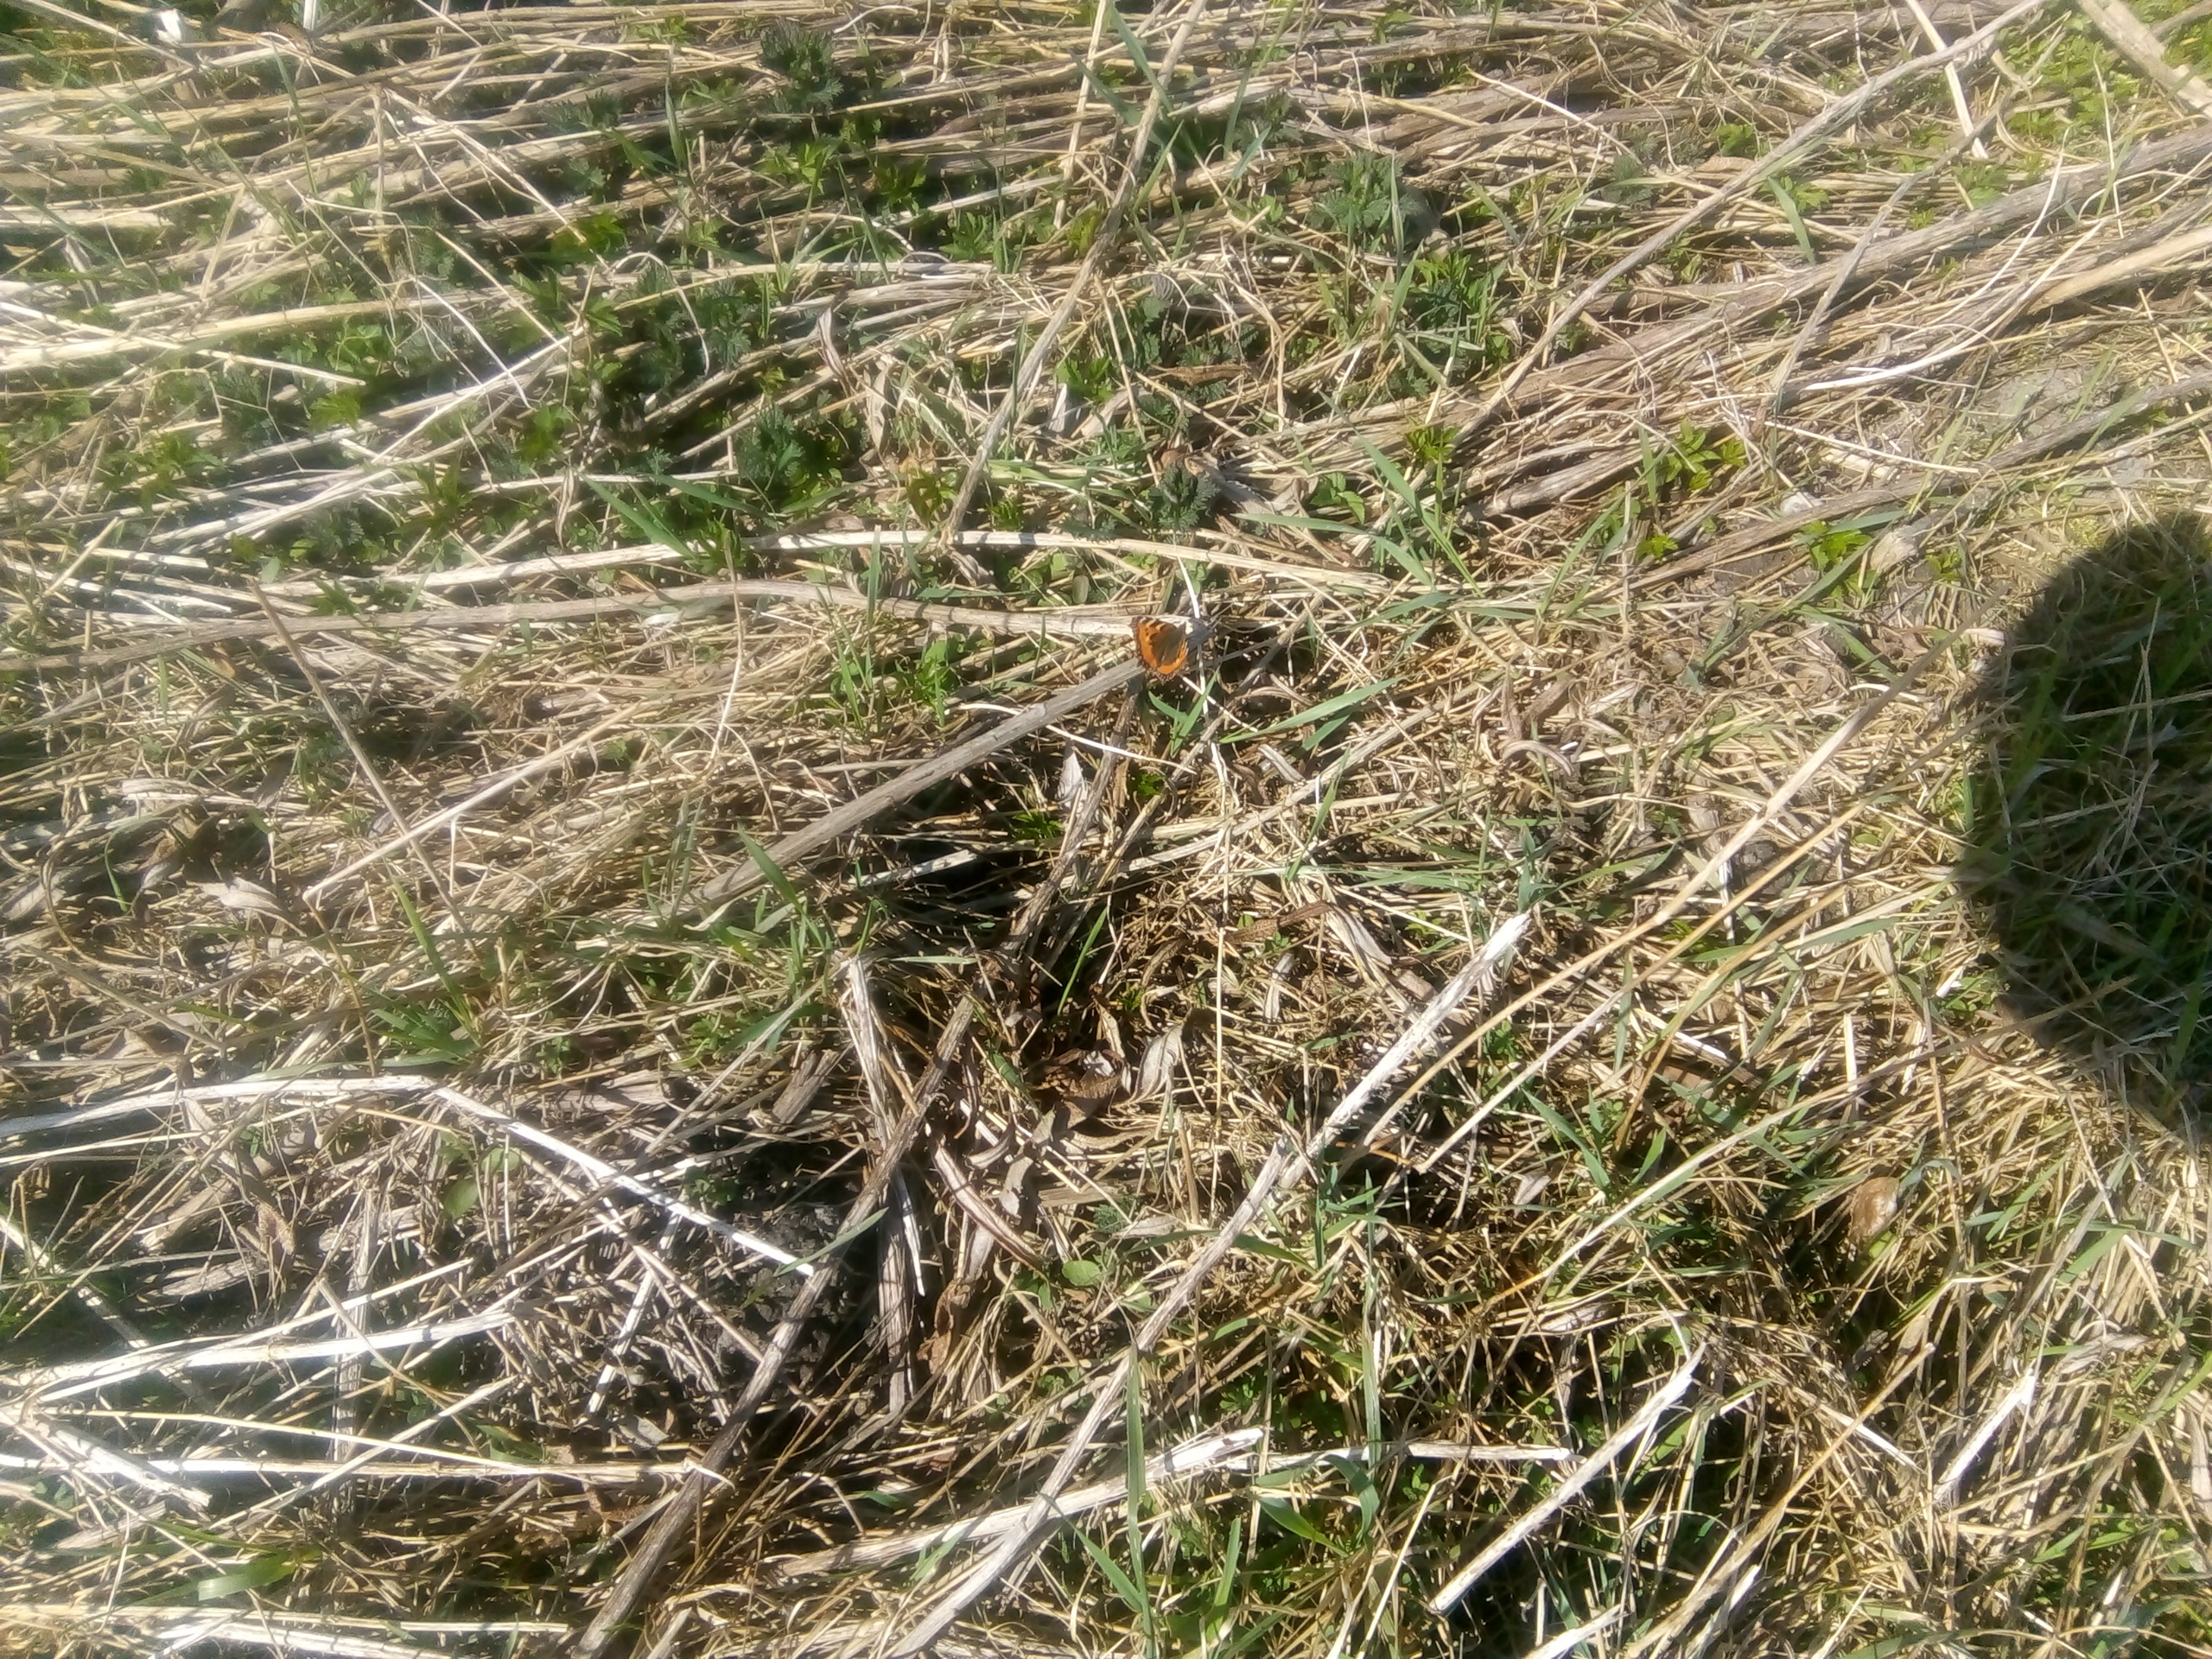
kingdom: Animalia
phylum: Arthropoda
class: Insecta
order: Lepidoptera
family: Nymphalidae
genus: Aglais
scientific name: Aglais urticae
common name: Nældens takvinge
